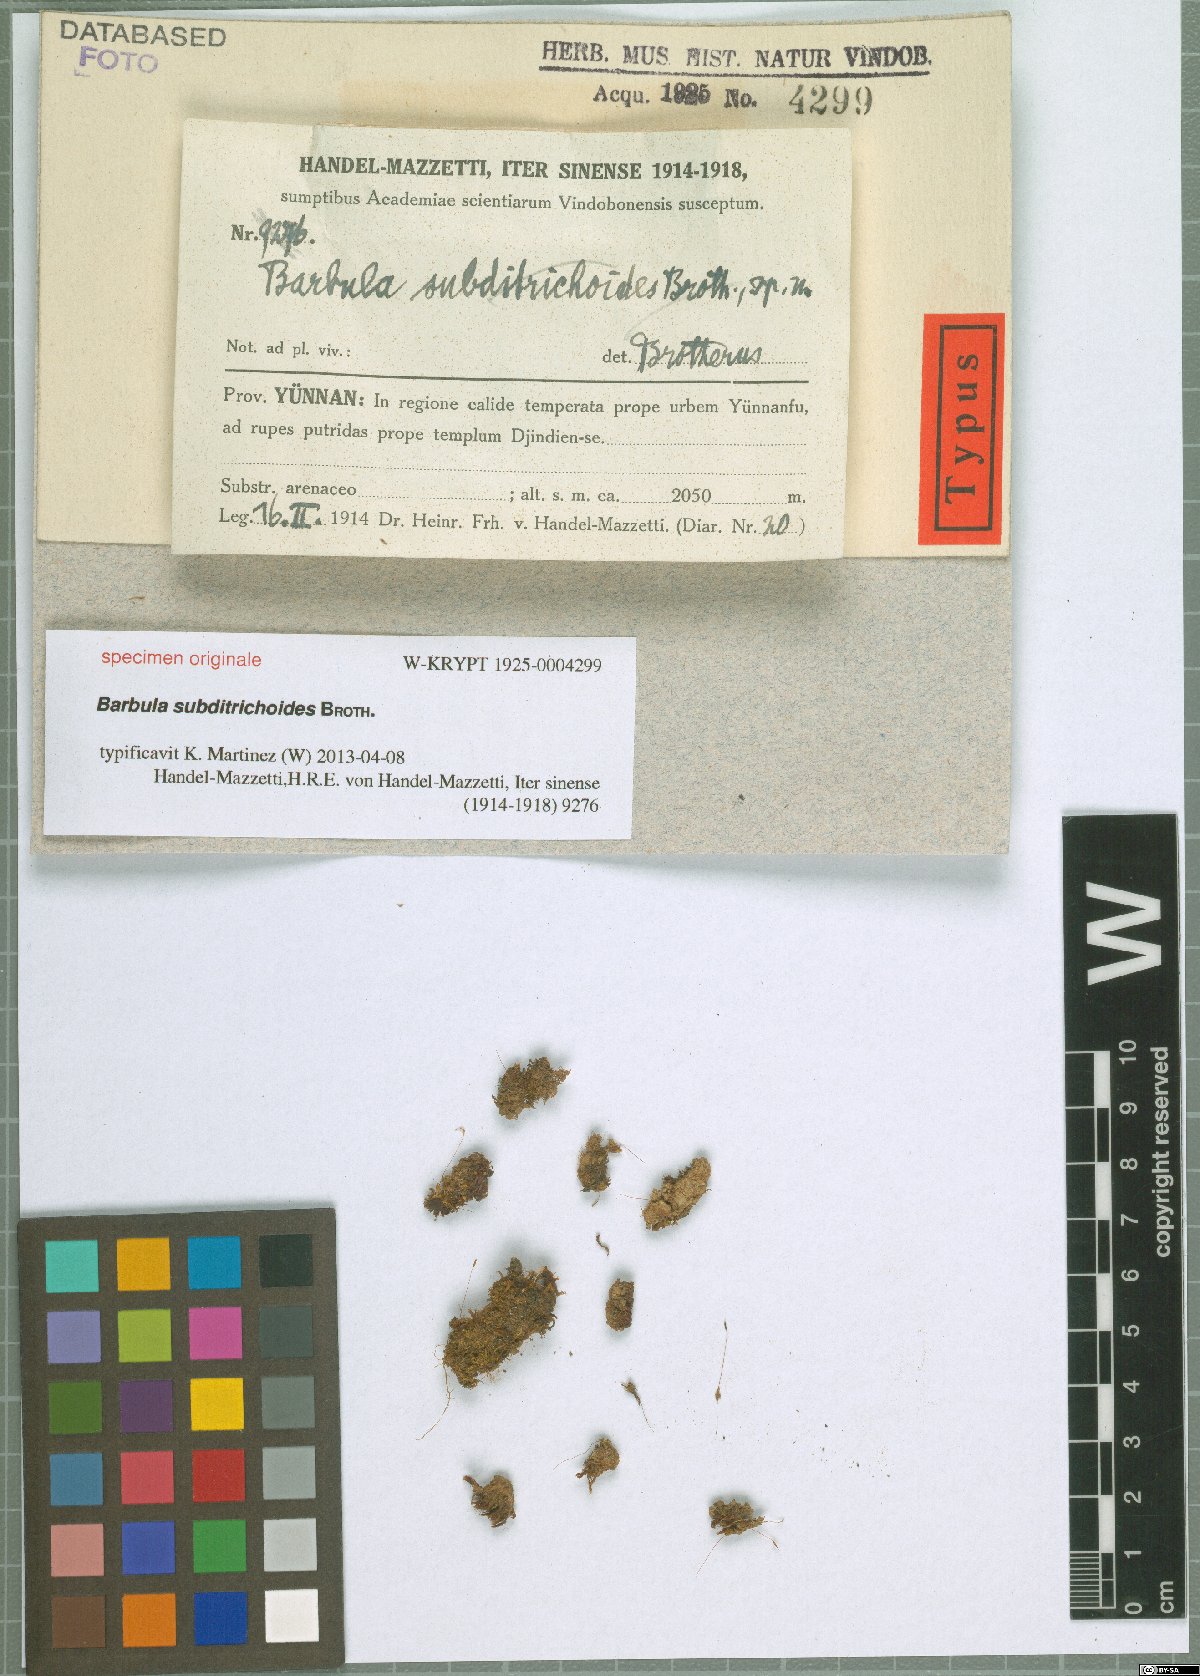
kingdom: Plantae
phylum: Bryophyta
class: Bryopsida
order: Pottiales
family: Pottiaceae
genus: Barbula
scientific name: Barbula
